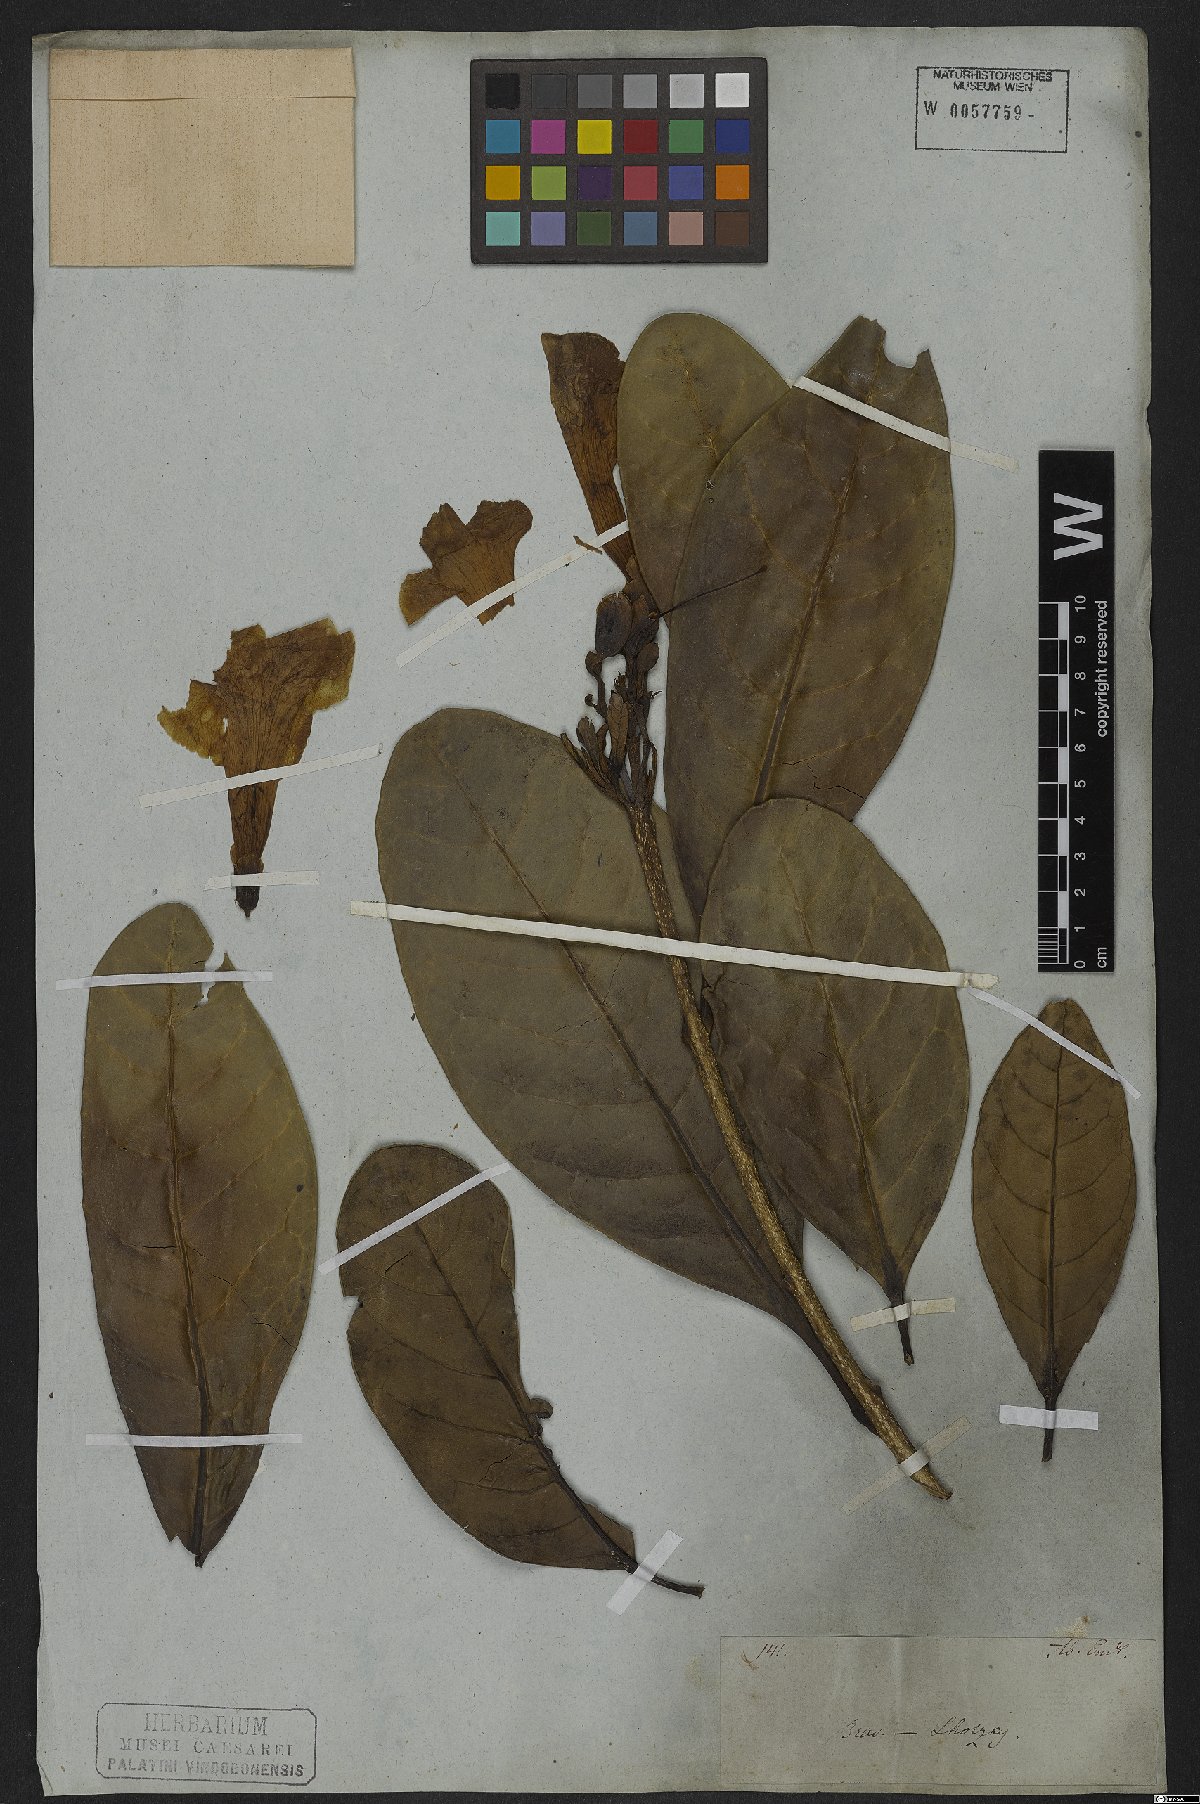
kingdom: Plantae
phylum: Tracheophyta
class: Magnoliopsida
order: Lamiales
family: Bignoniaceae
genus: Tabebuia
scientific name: Tabebuia cassinoides
